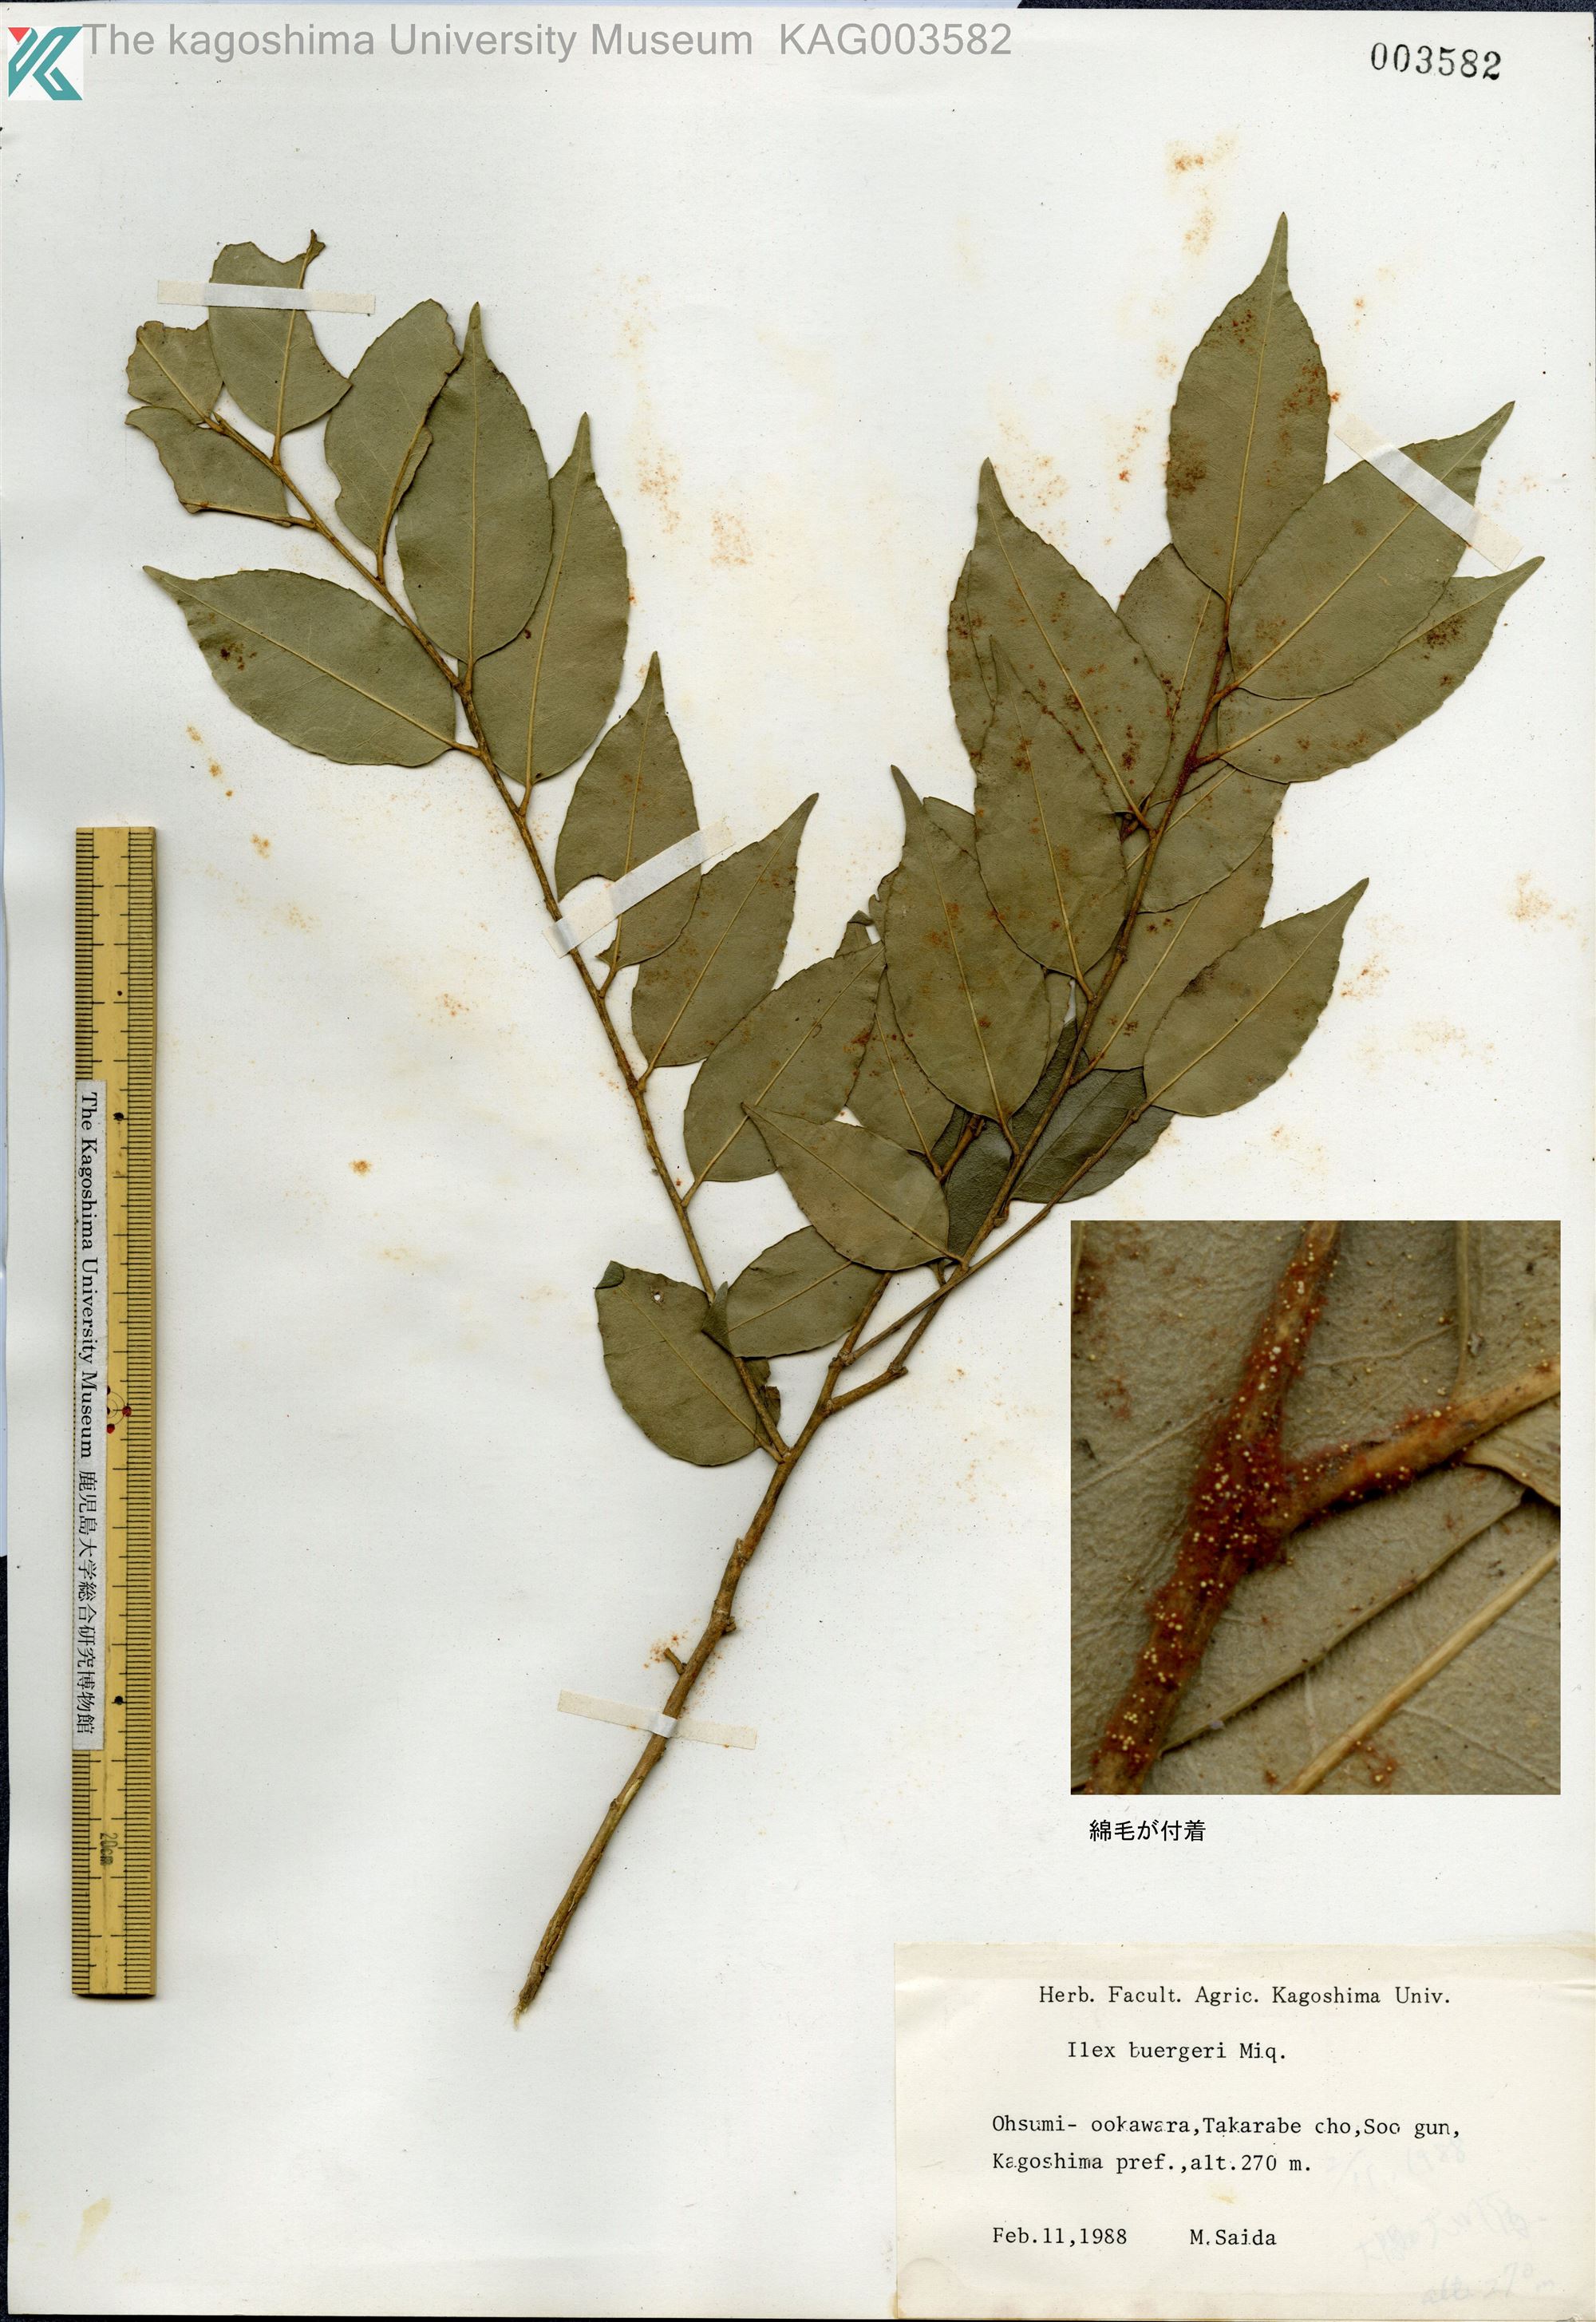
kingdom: Plantae
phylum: Tracheophyta
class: Magnoliopsida
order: Aquifoliales
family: Aquifoliaceae
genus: Ilex
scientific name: Ilex buergeri
